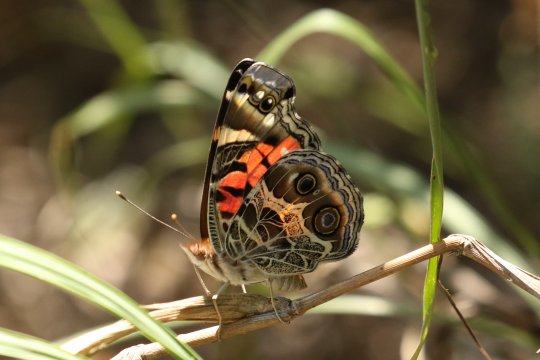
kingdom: Animalia
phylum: Arthropoda
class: Insecta
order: Lepidoptera
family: Nymphalidae
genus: Vanessa
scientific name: Vanessa virginiensis
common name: American Lady
